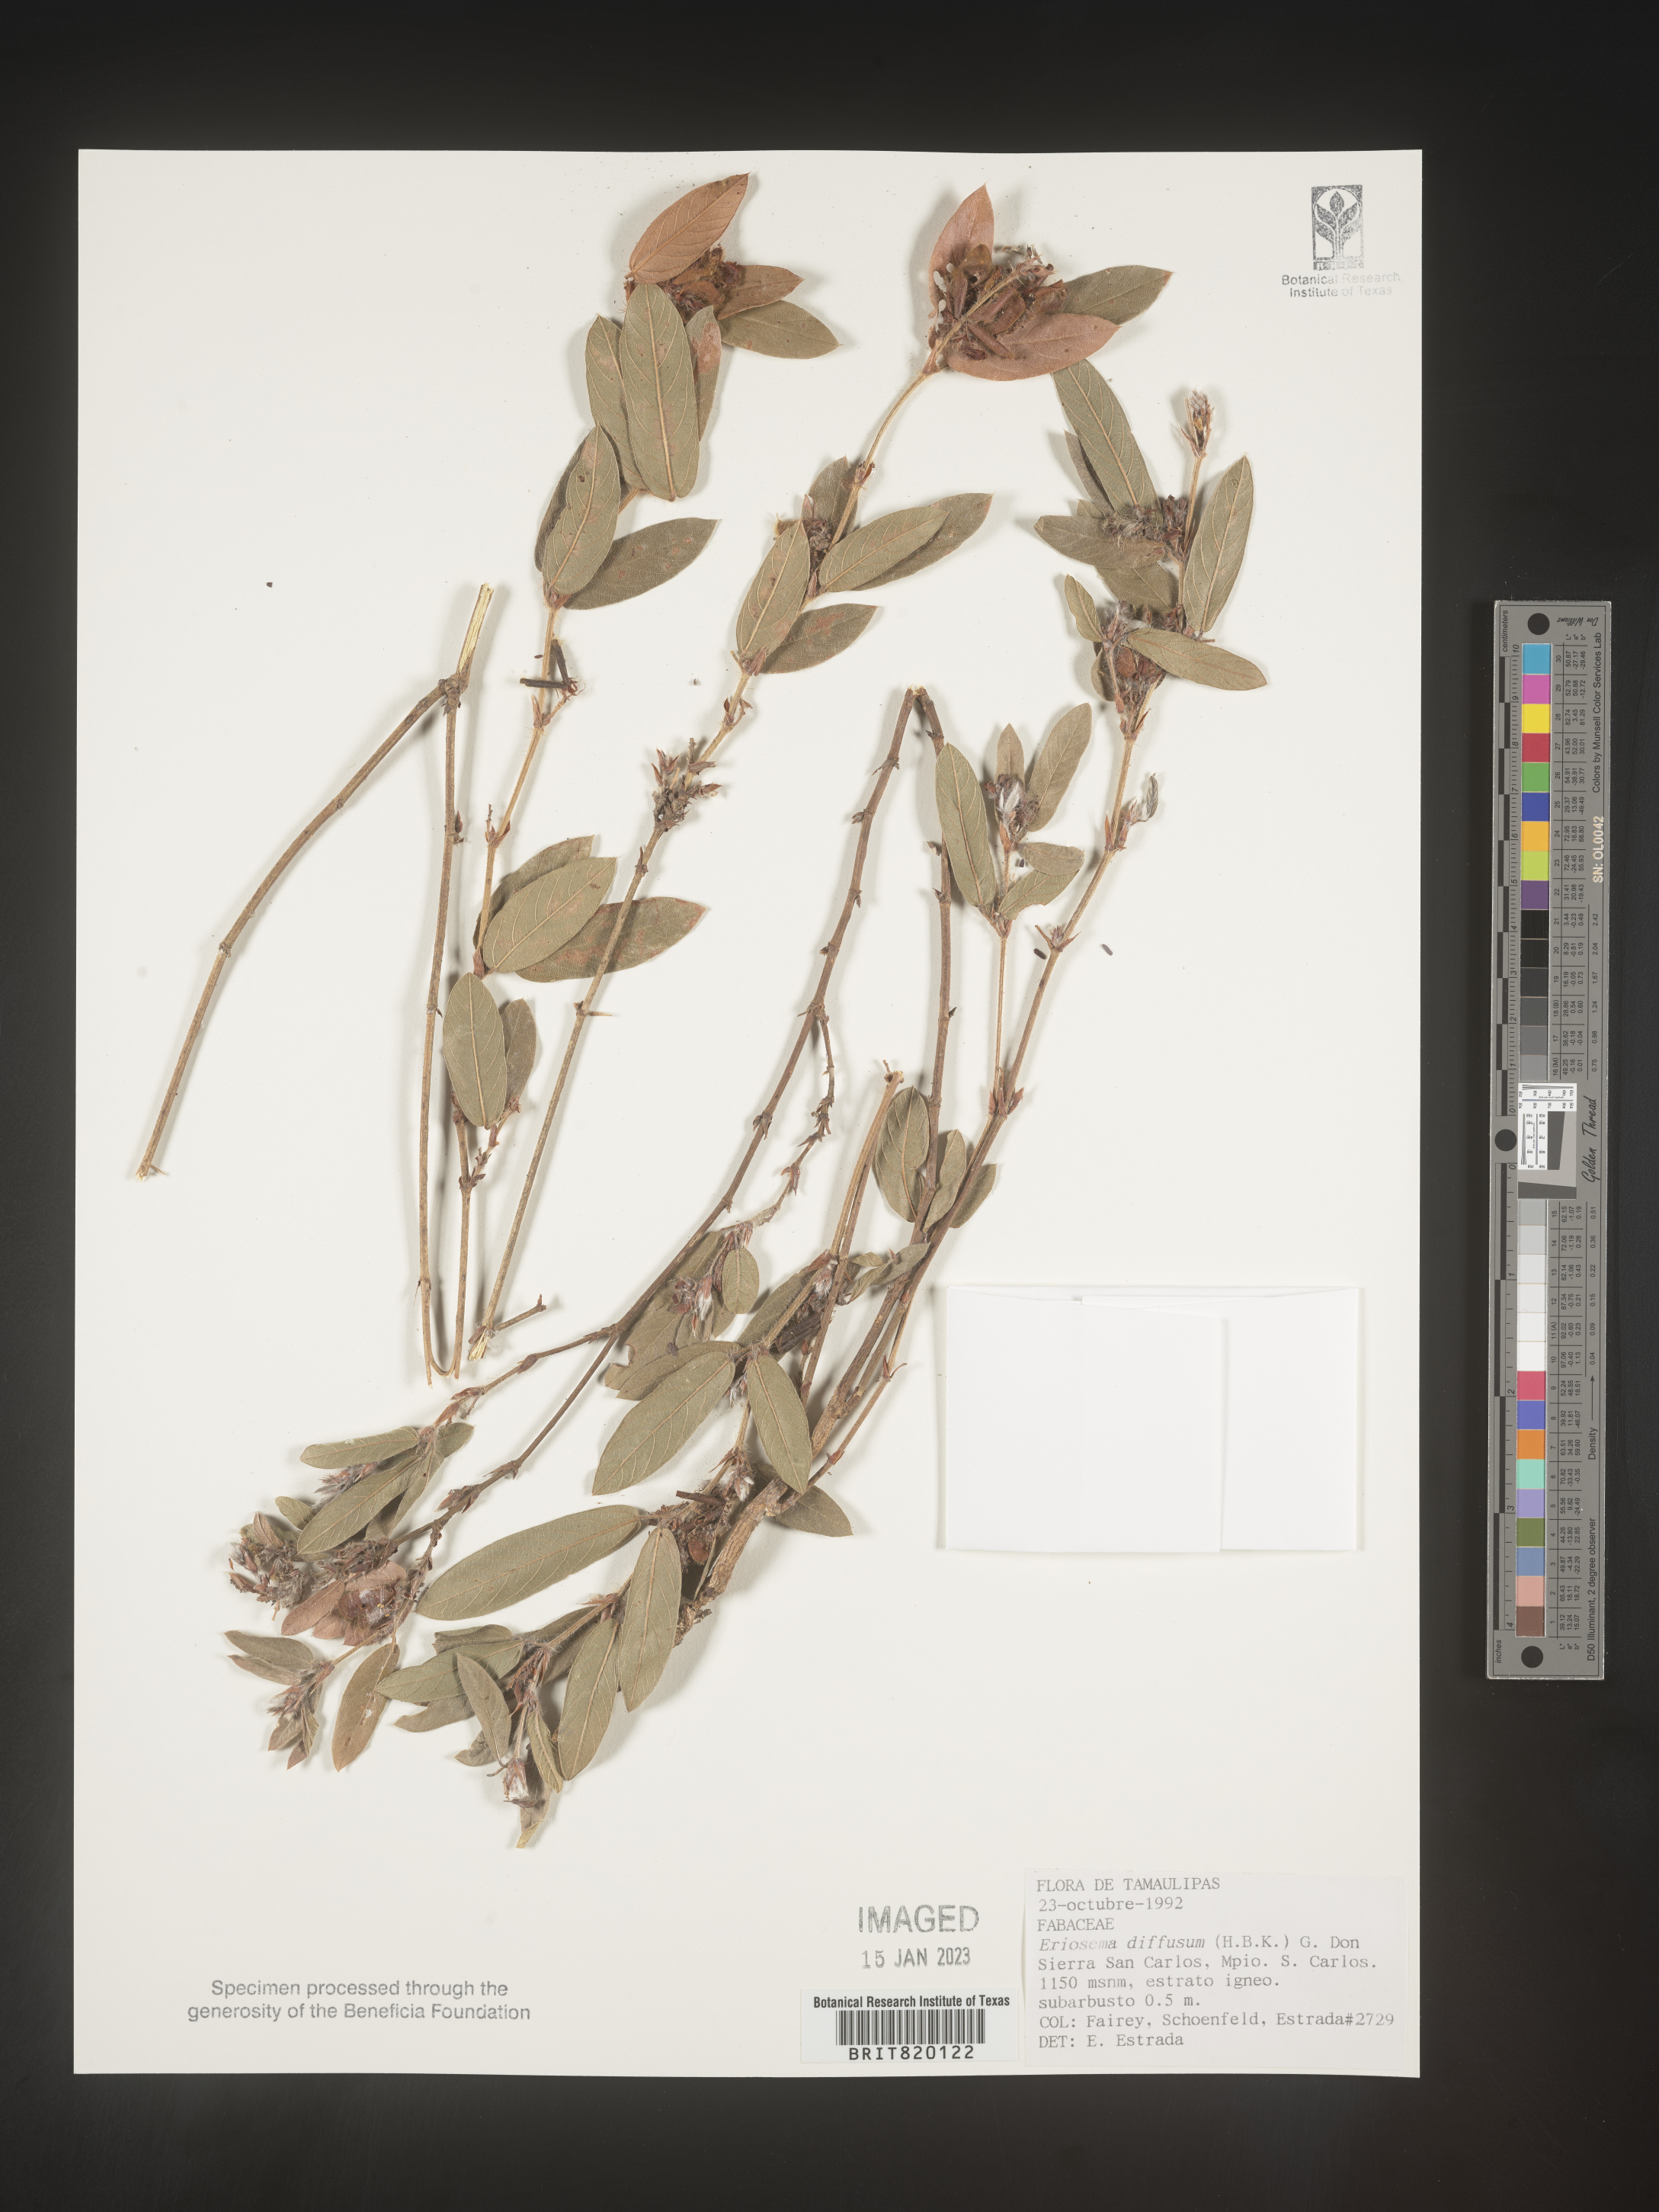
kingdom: Plantae
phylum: Tracheophyta
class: Magnoliopsida
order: Fabales
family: Fabaceae
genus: Eriosema
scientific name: Eriosema
